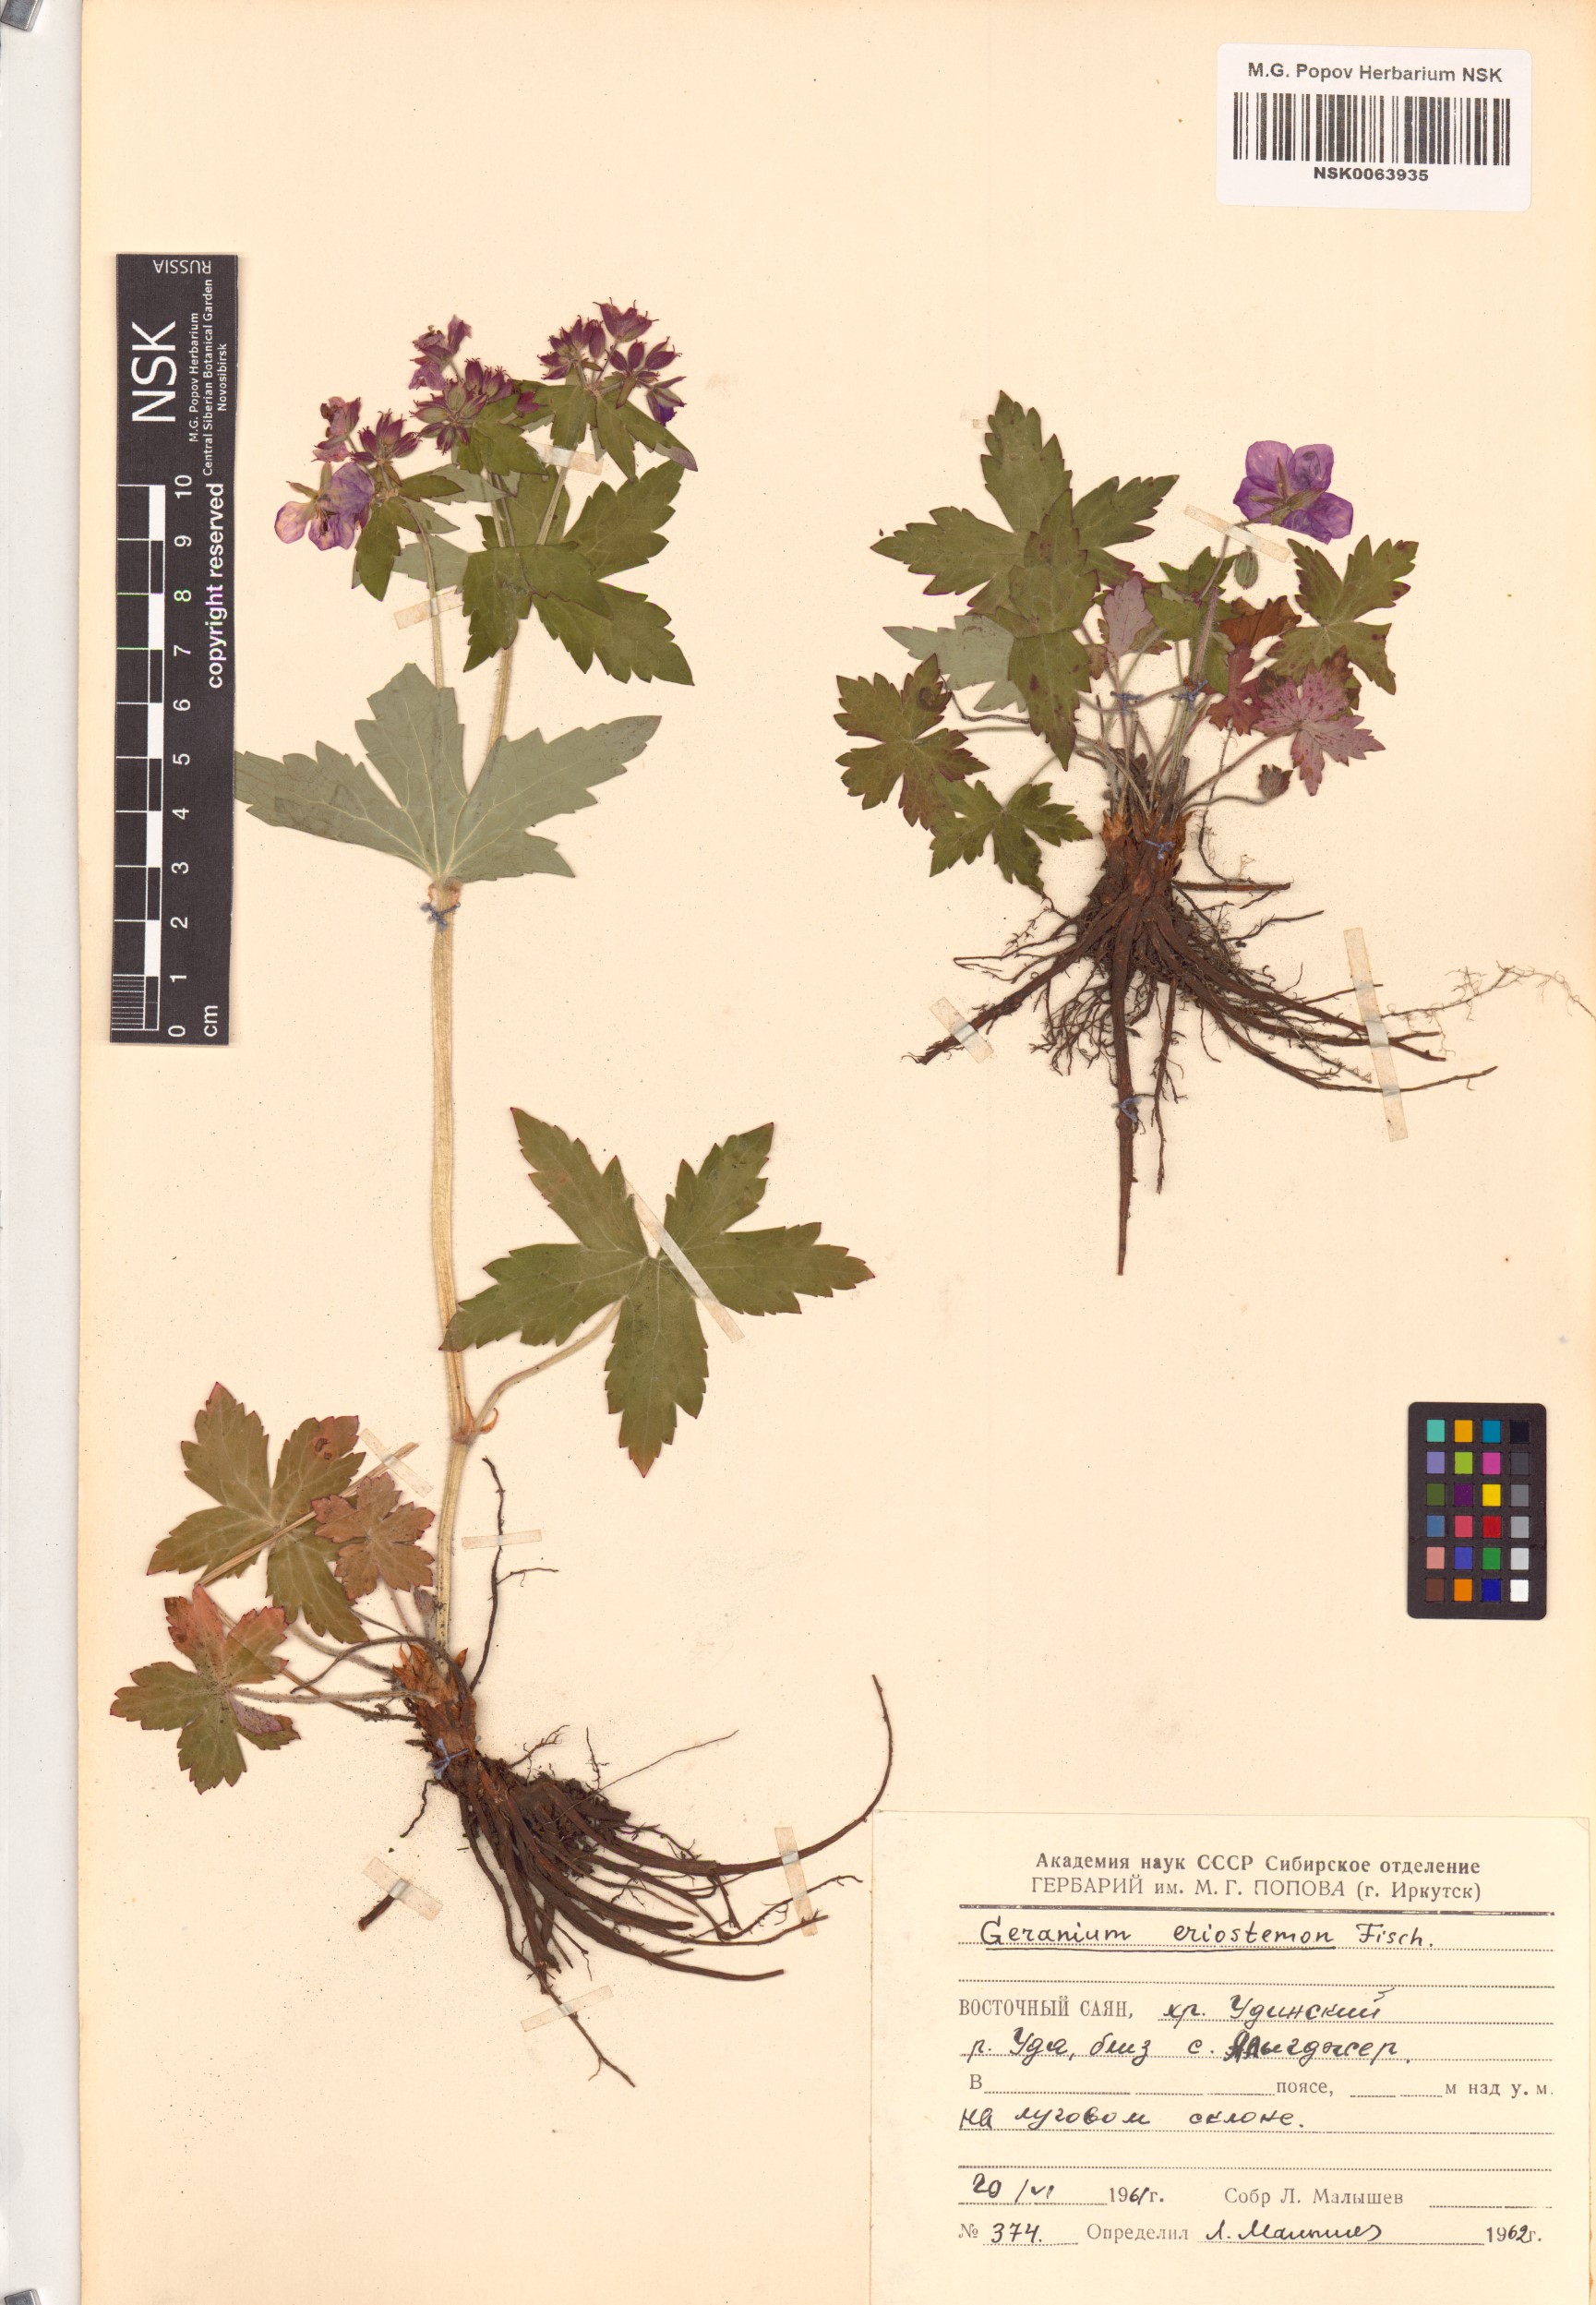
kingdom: Plantae
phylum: Tracheophyta
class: Magnoliopsida
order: Geraniales
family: Geraniaceae
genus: Geranium
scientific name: Geranium platyanthum
